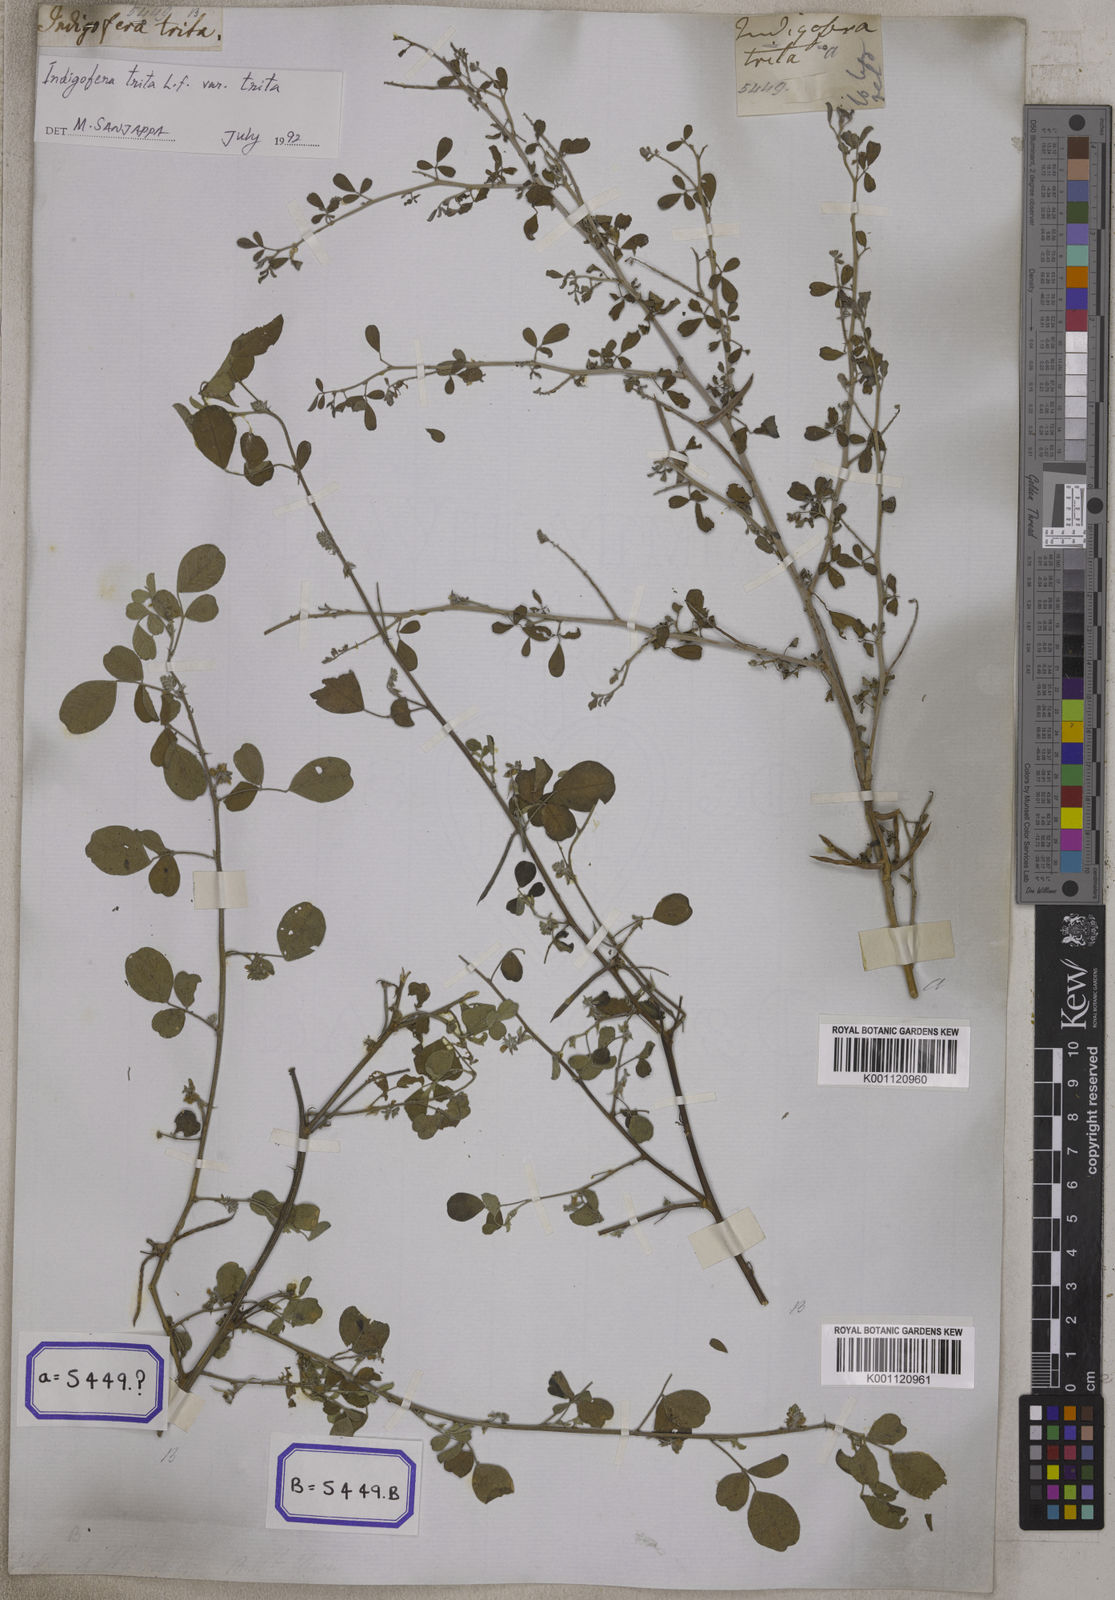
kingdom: Plantae
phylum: Tracheophyta
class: Magnoliopsida
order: Fabales
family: Fabaceae
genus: Indigofera
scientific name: Indigofera trita
